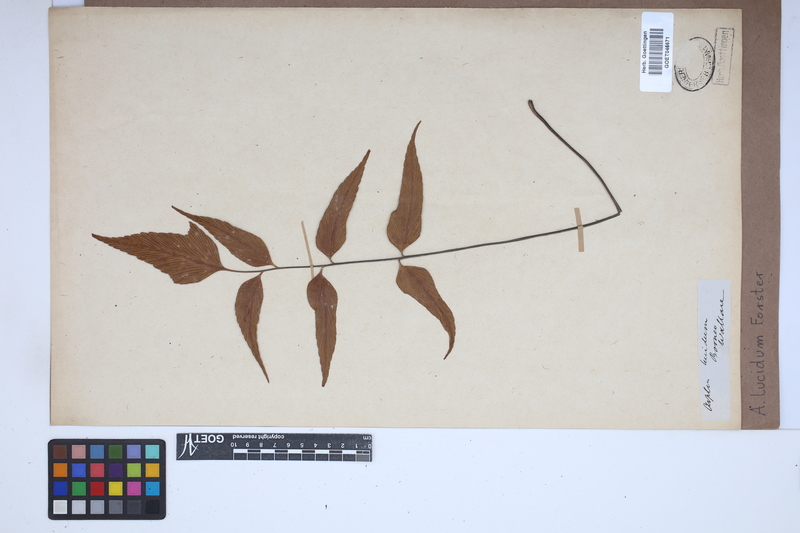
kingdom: Plantae
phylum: Tracheophyta
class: Polypodiopsida
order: Polypodiales
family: Aspleniaceae
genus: Asplenium
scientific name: Asplenium
